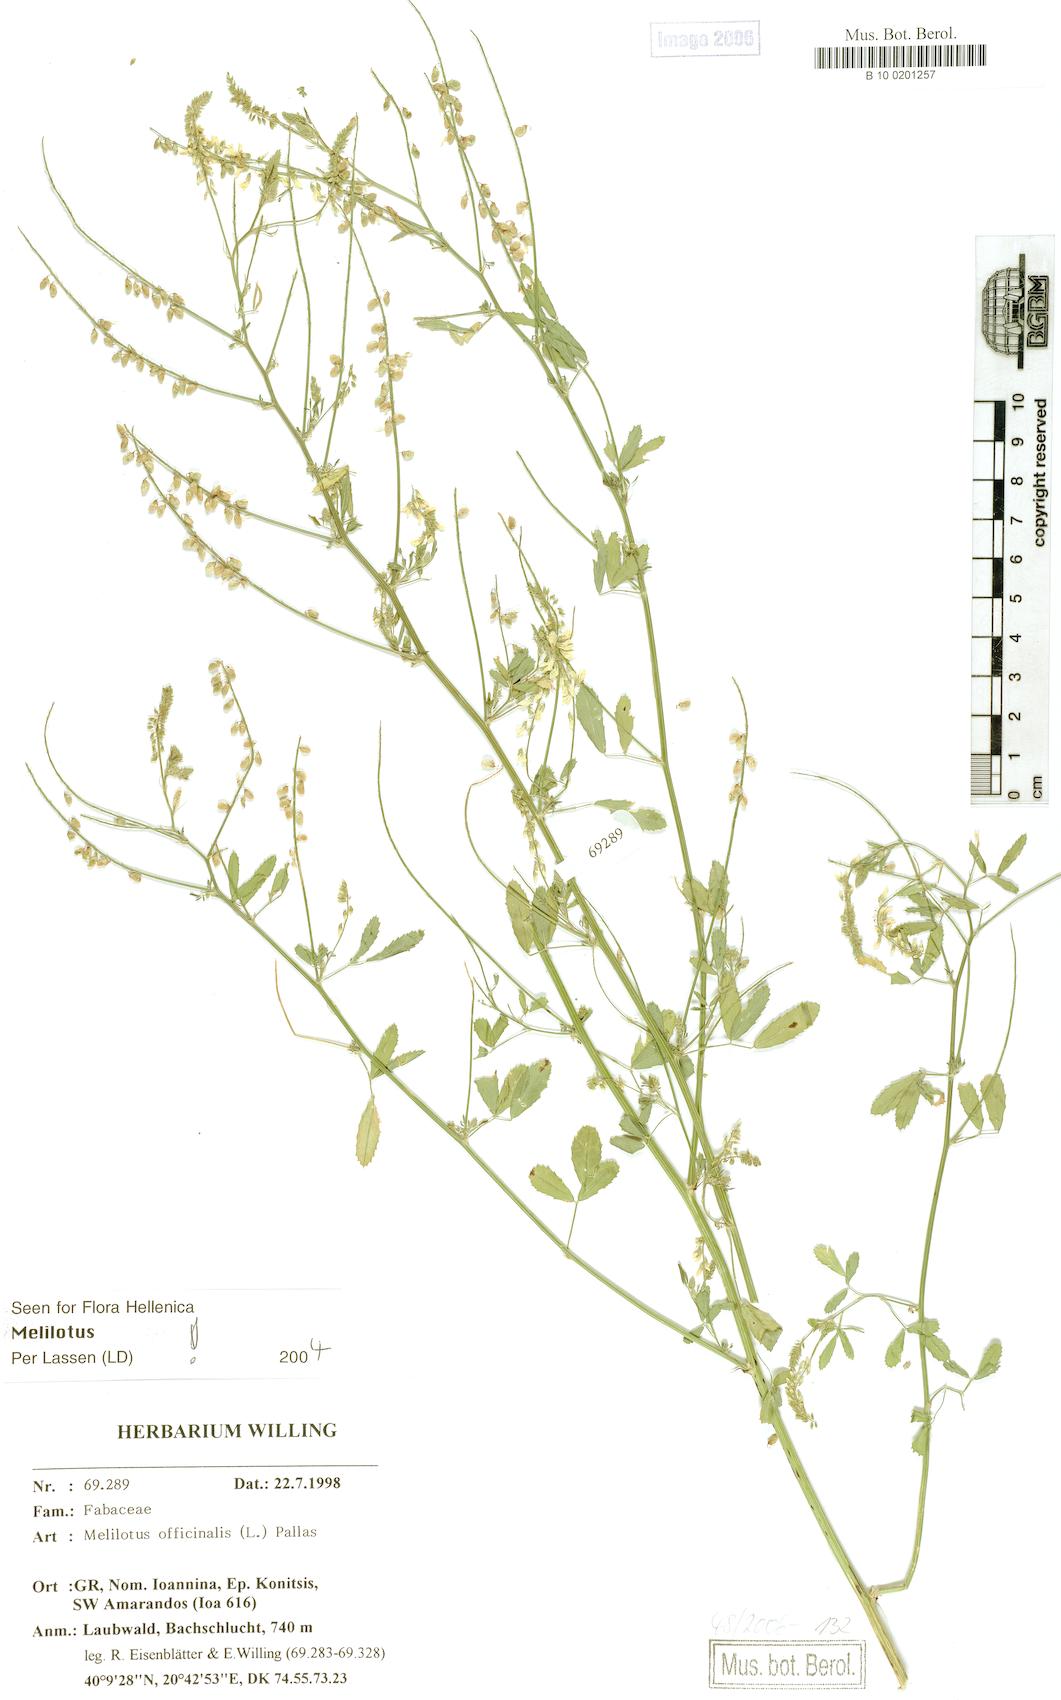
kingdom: Plantae
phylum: Tracheophyta
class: Magnoliopsida
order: Fabales
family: Fabaceae
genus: Melilotus
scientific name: Melilotus officinalis
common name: Sweetclover
